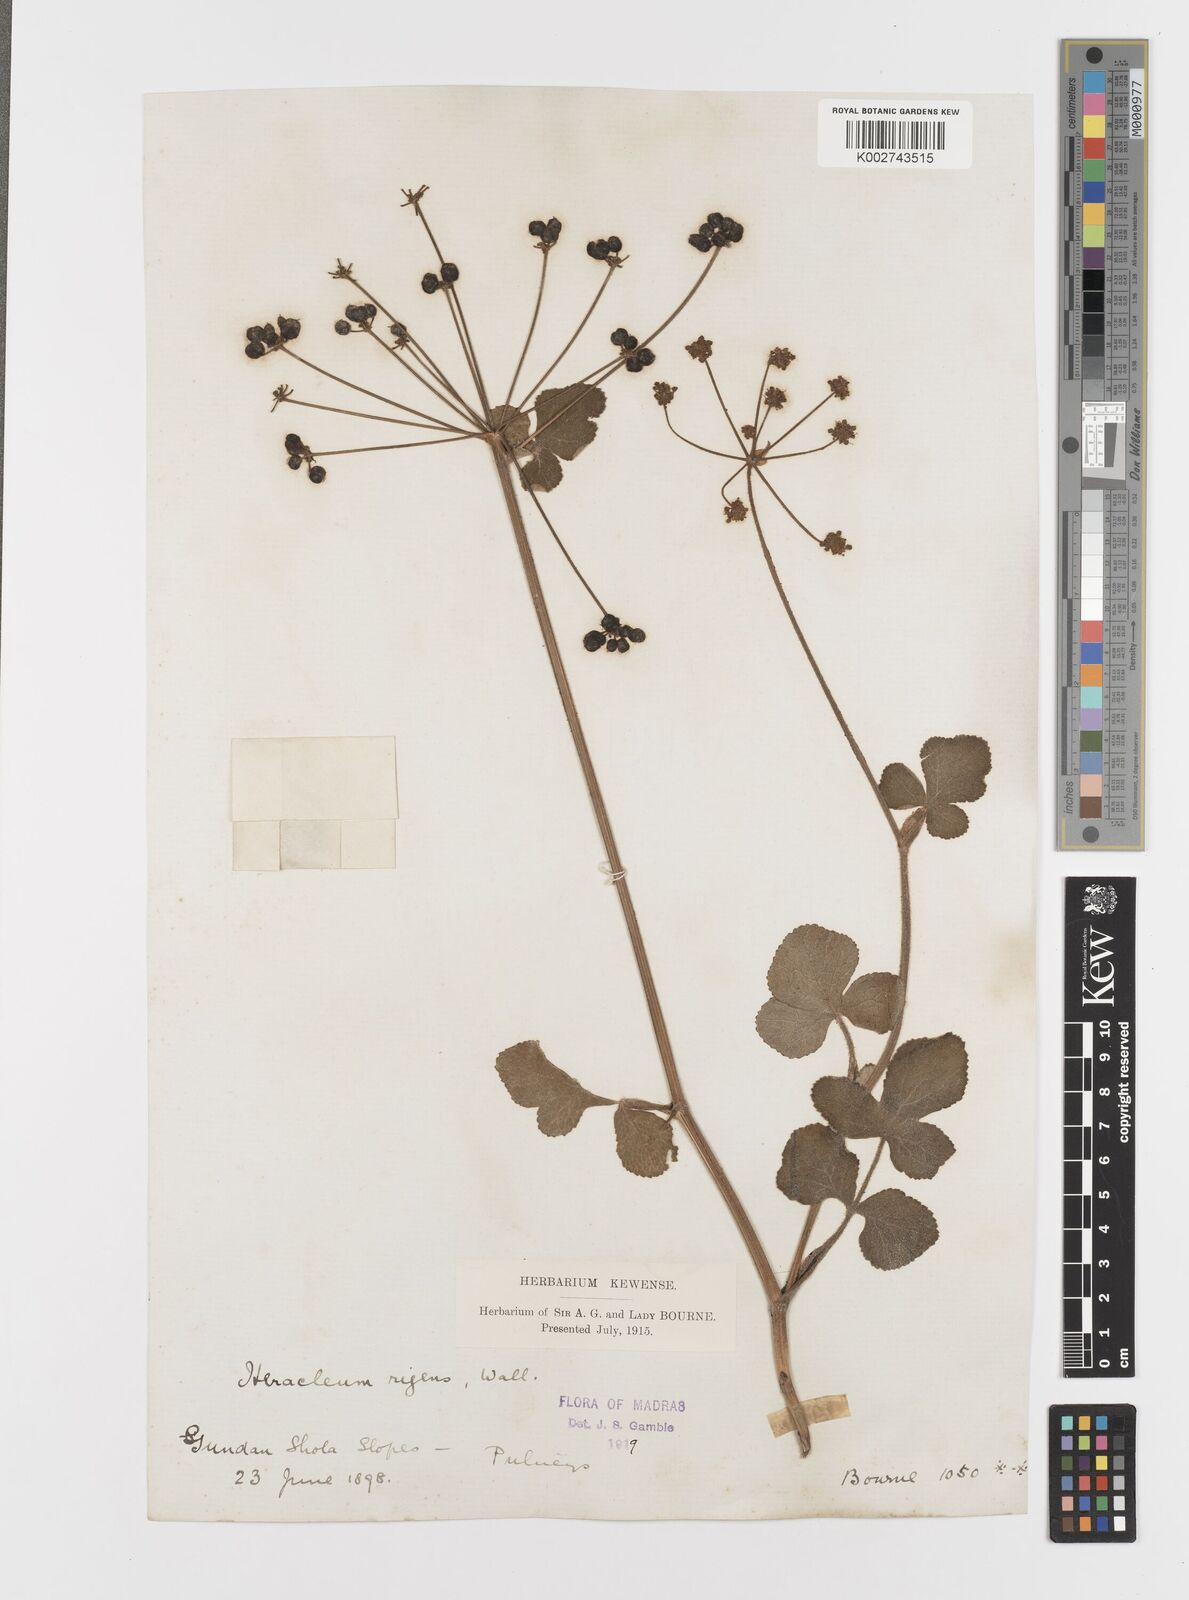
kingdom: Plantae
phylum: Tracheophyta
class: Magnoliopsida
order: Apiales
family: Apiaceae
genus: Tetrataenium
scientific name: Tetrataenium rigens
